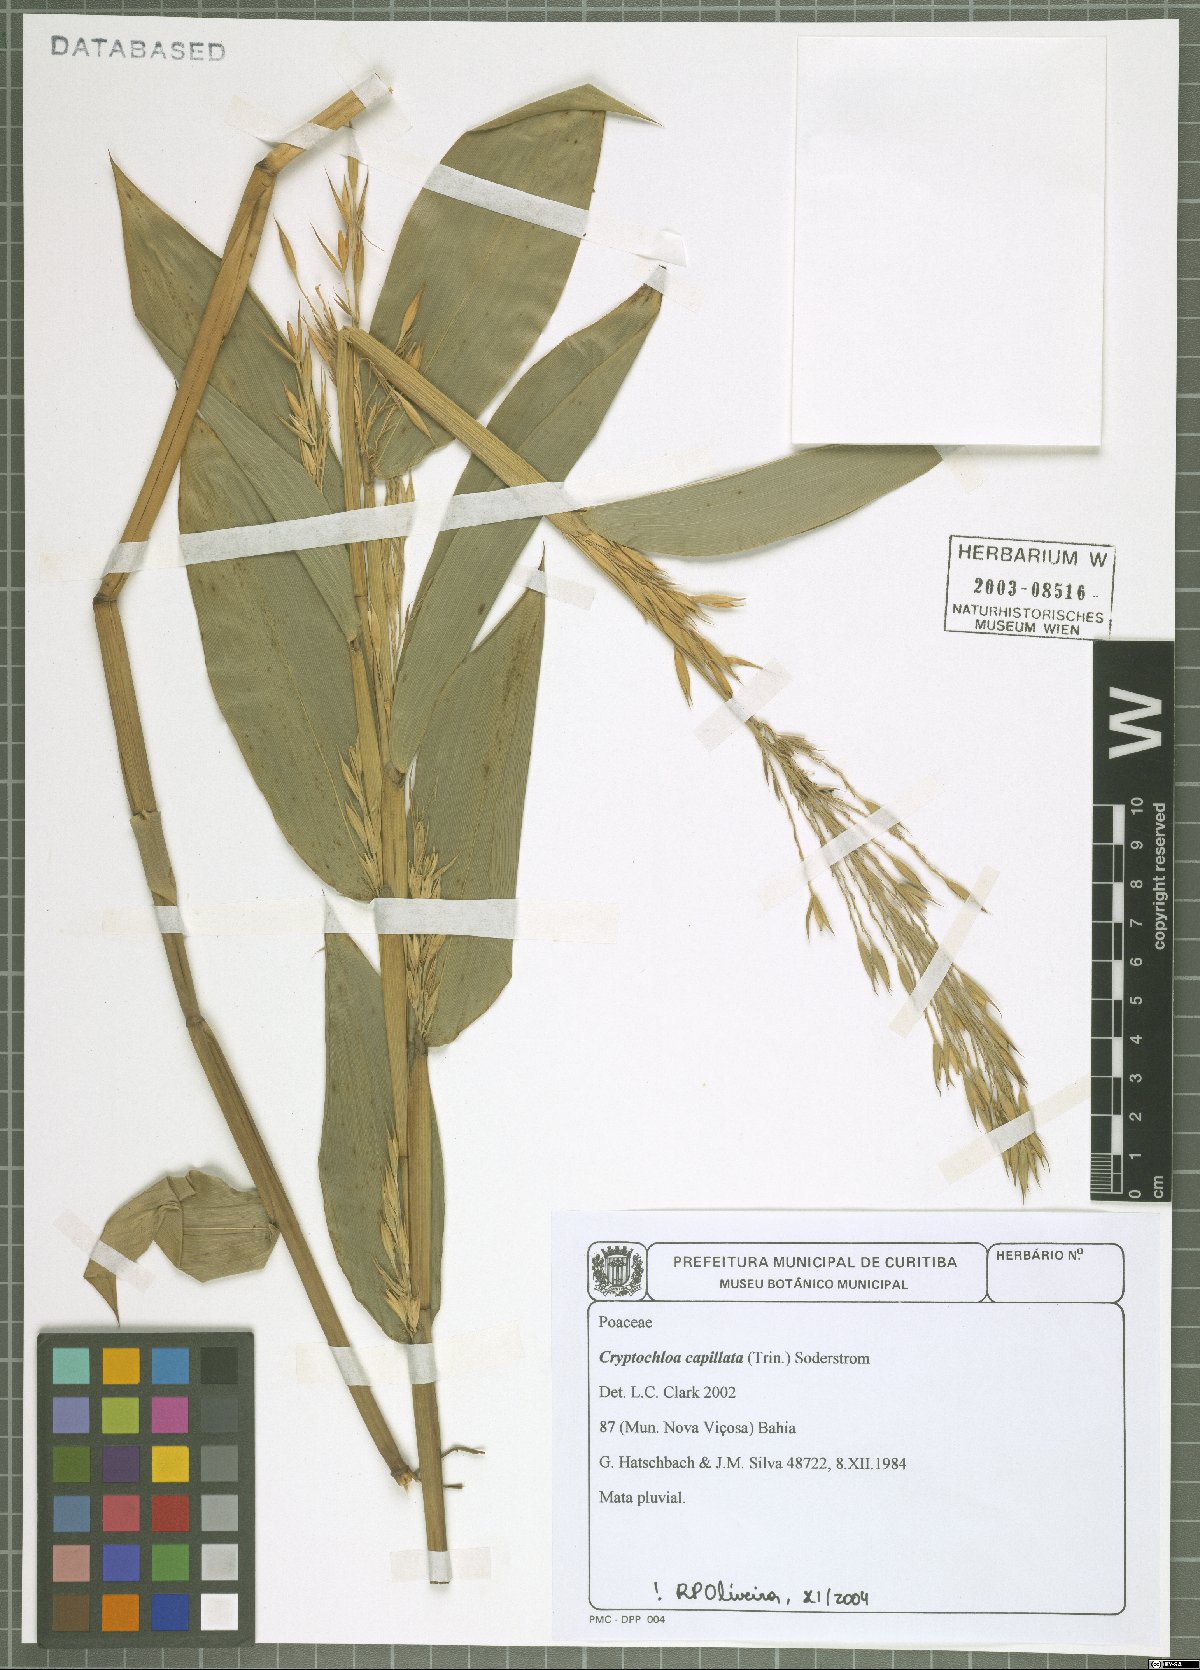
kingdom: Plantae
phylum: Tracheophyta
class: Liliopsida
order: Poales
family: Poaceae
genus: Cryptochloa
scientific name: Cryptochloa capillata
